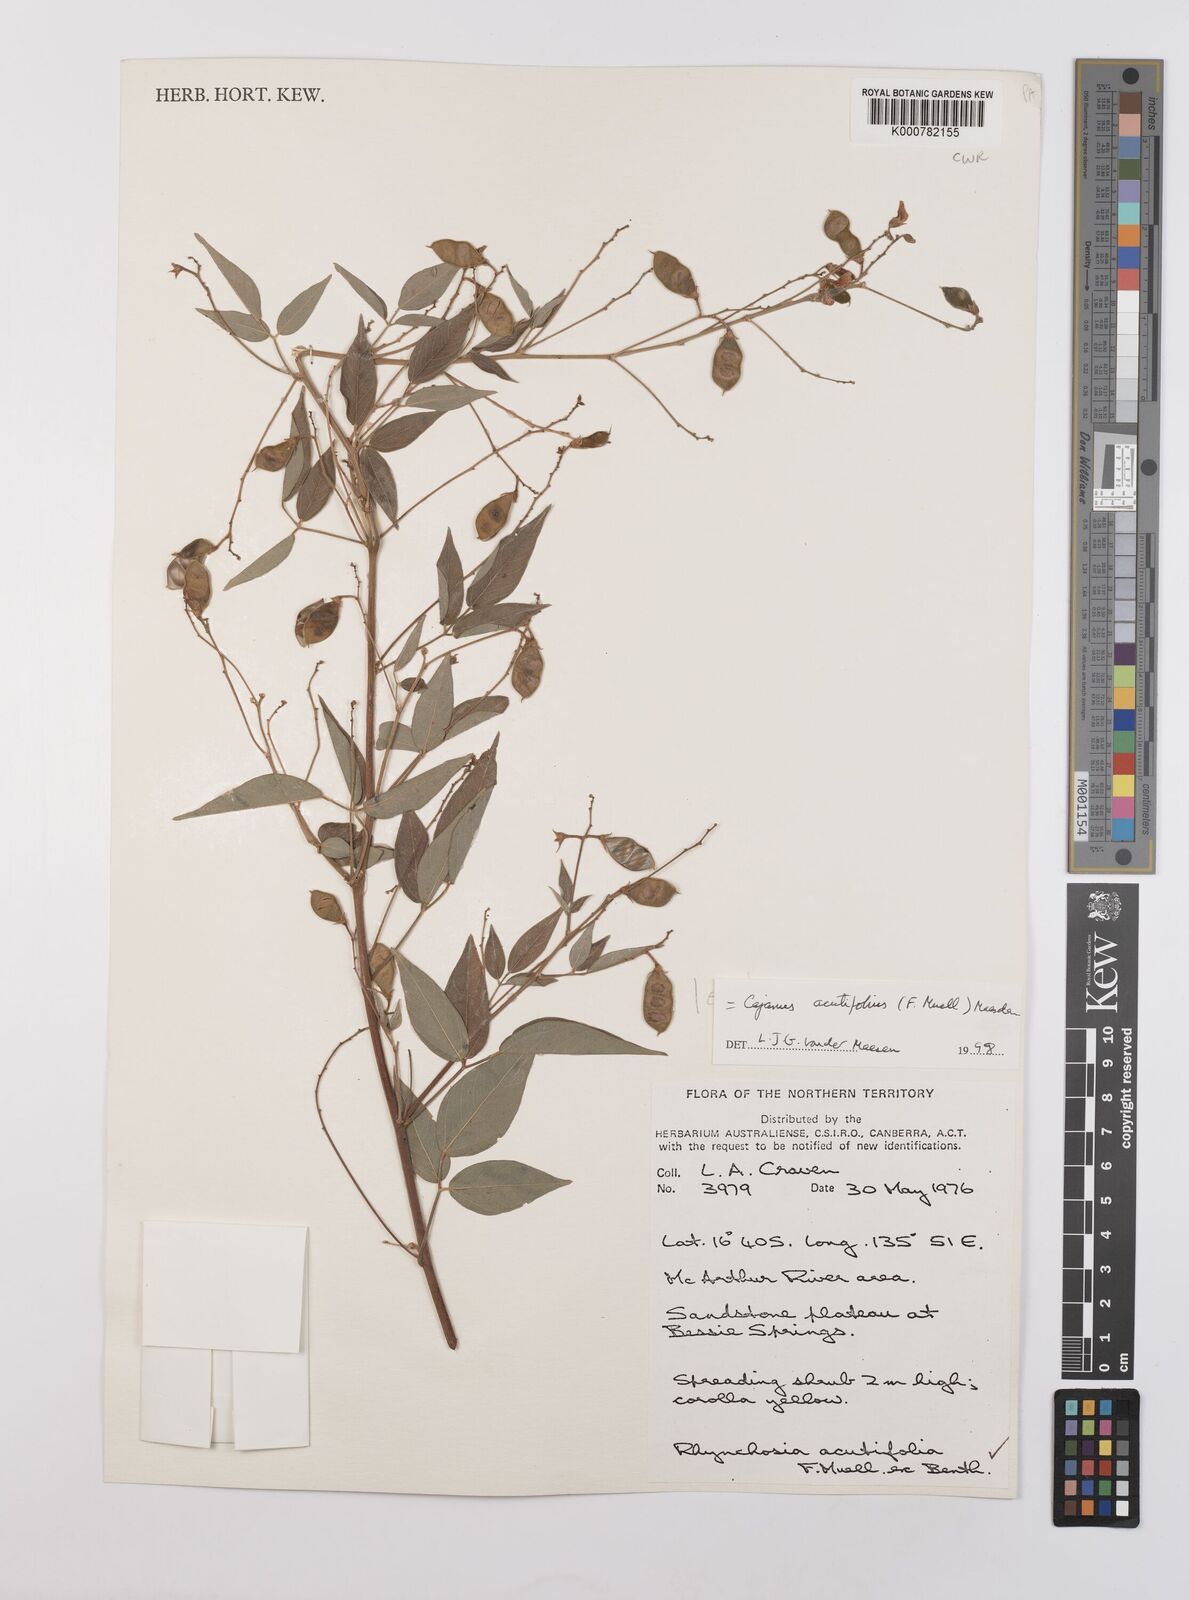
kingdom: Plantae
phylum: Tracheophyta
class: Magnoliopsida
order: Fabales
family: Fabaceae
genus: Cajanus
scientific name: Cajanus acutifolius
